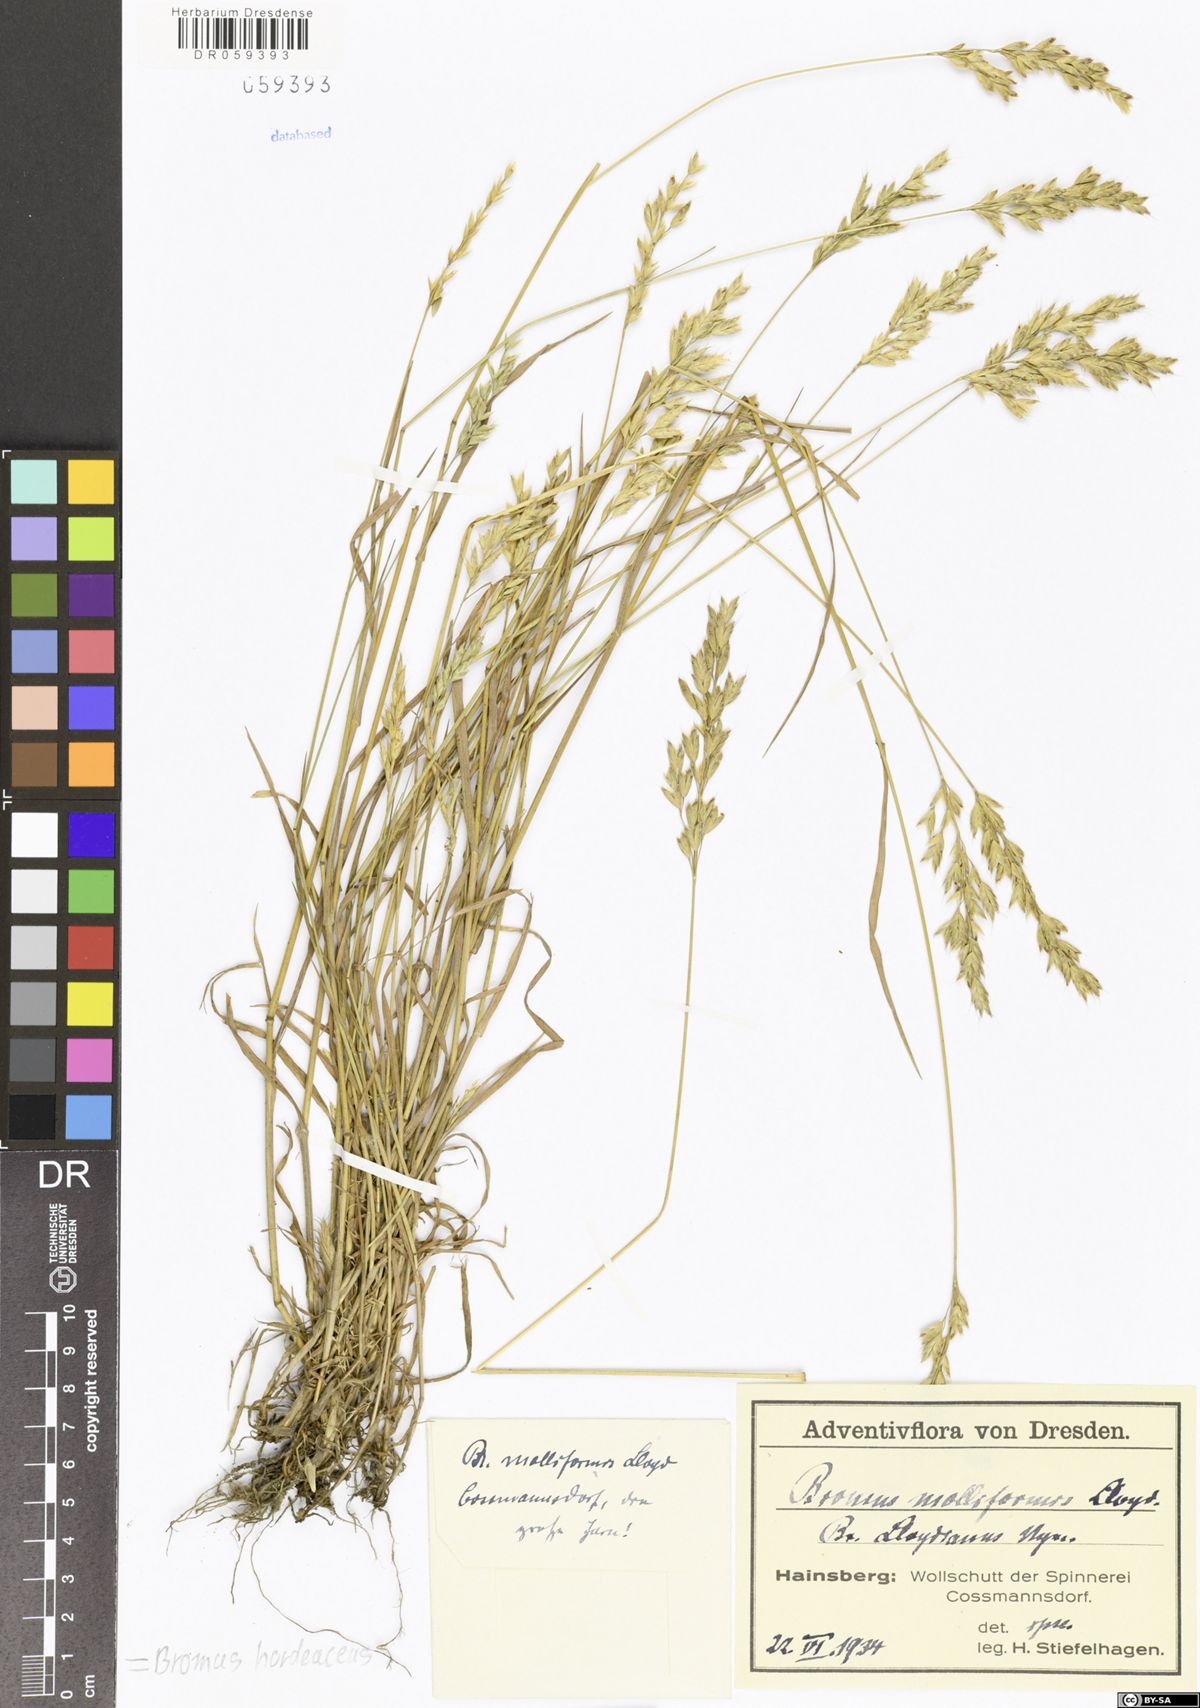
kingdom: Plantae
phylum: Tracheophyta
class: Liliopsida
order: Poales
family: Poaceae
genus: Bromus
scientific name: Bromus hordeaceus
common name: Soft brome
